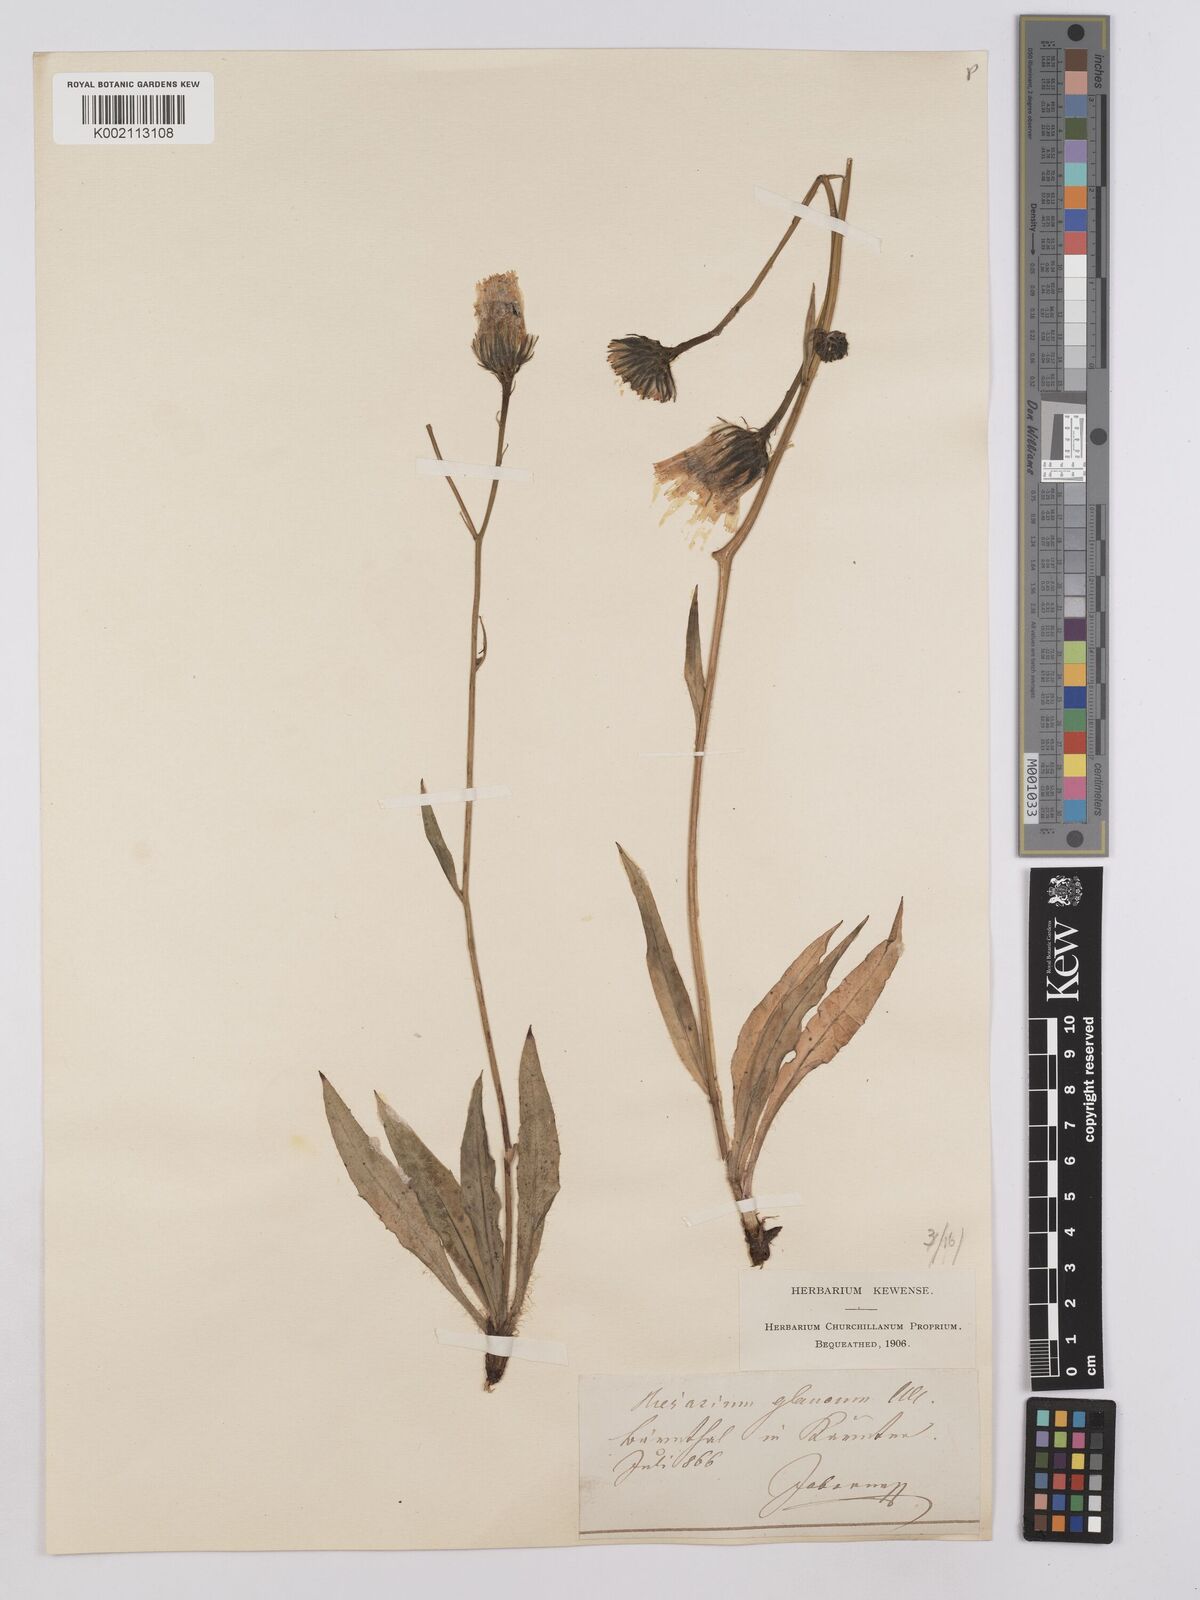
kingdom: Plantae
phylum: Tracheophyta
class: Magnoliopsida
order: Asterales
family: Asteraceae
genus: Hieracium
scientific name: Hieracium glaucum
